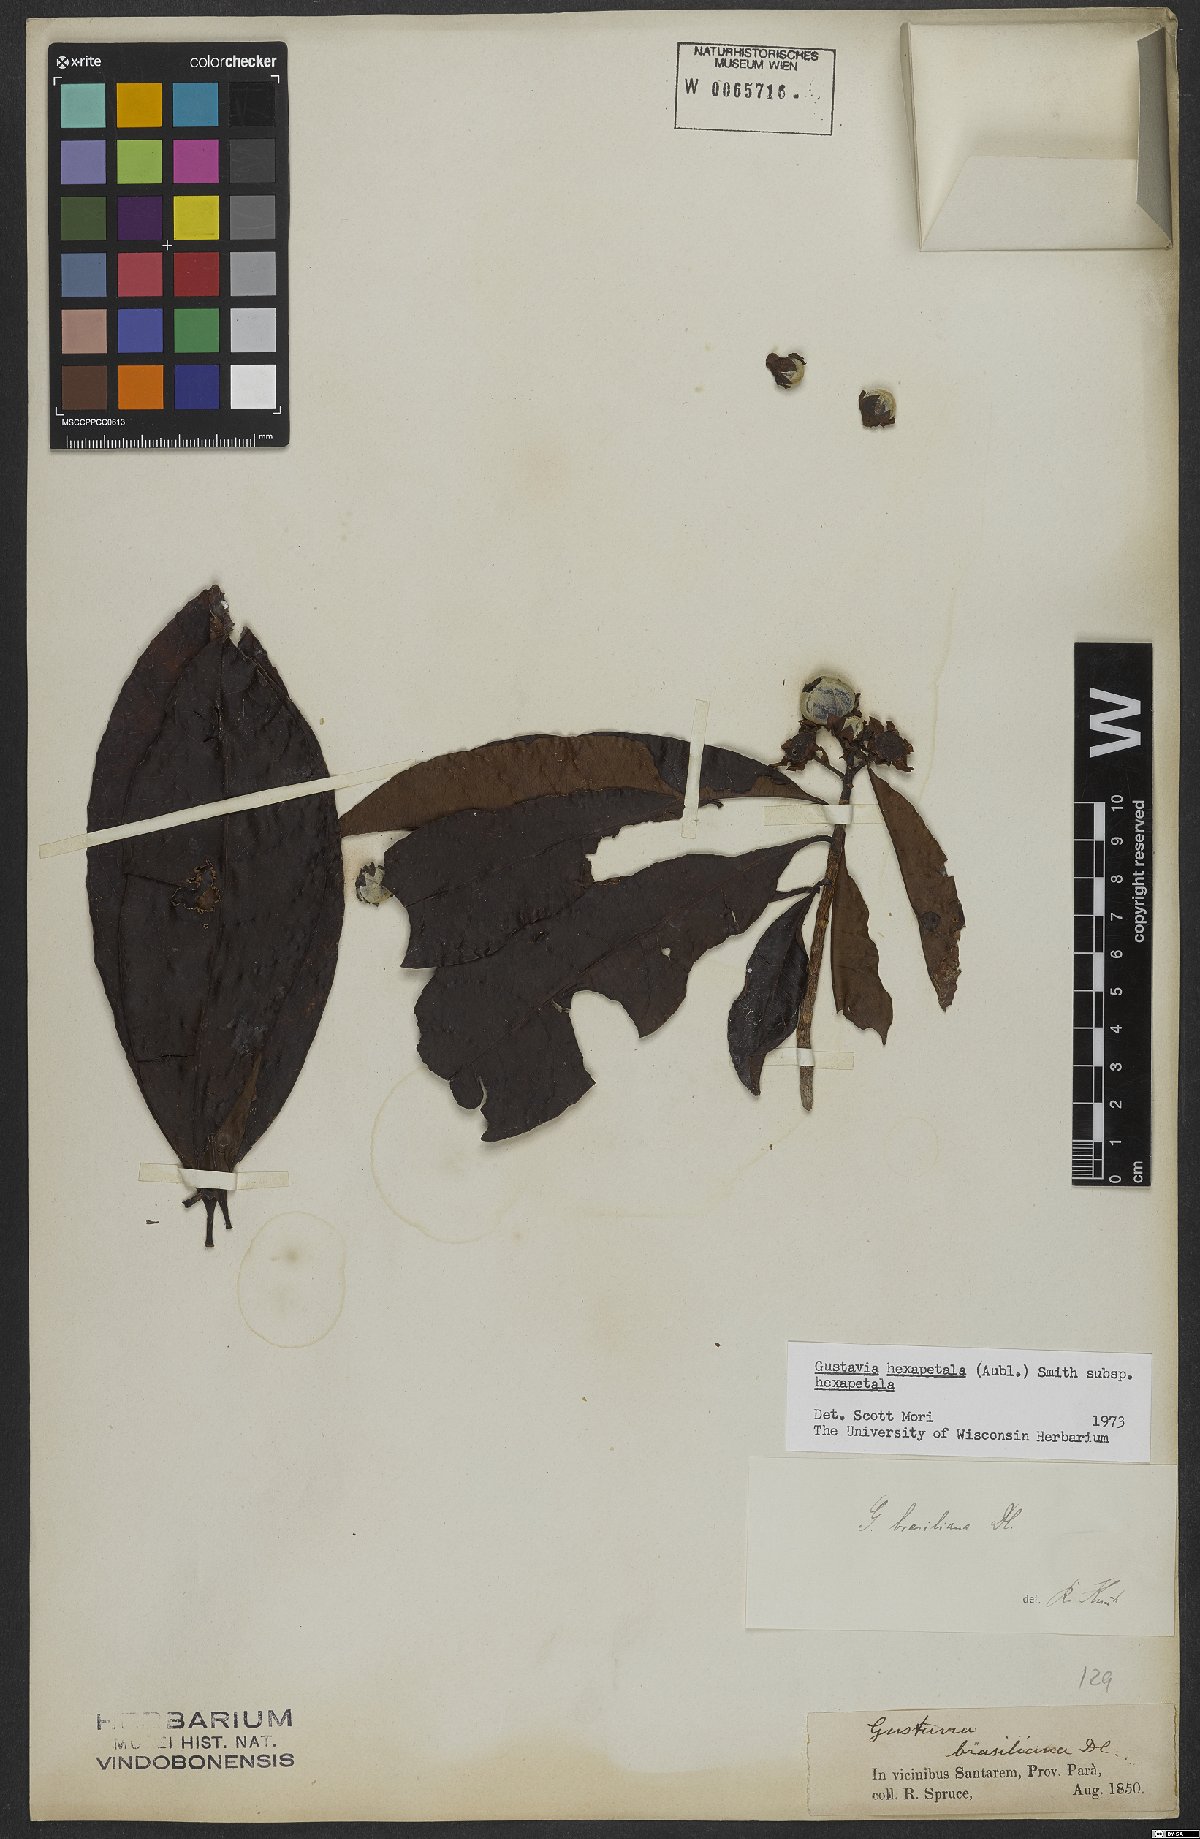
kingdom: Plantae
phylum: Tracheophyta
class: Magnoliopsida
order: Ericales
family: Lecythidaceae
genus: Gustavia
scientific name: Gustavia hexapetala
